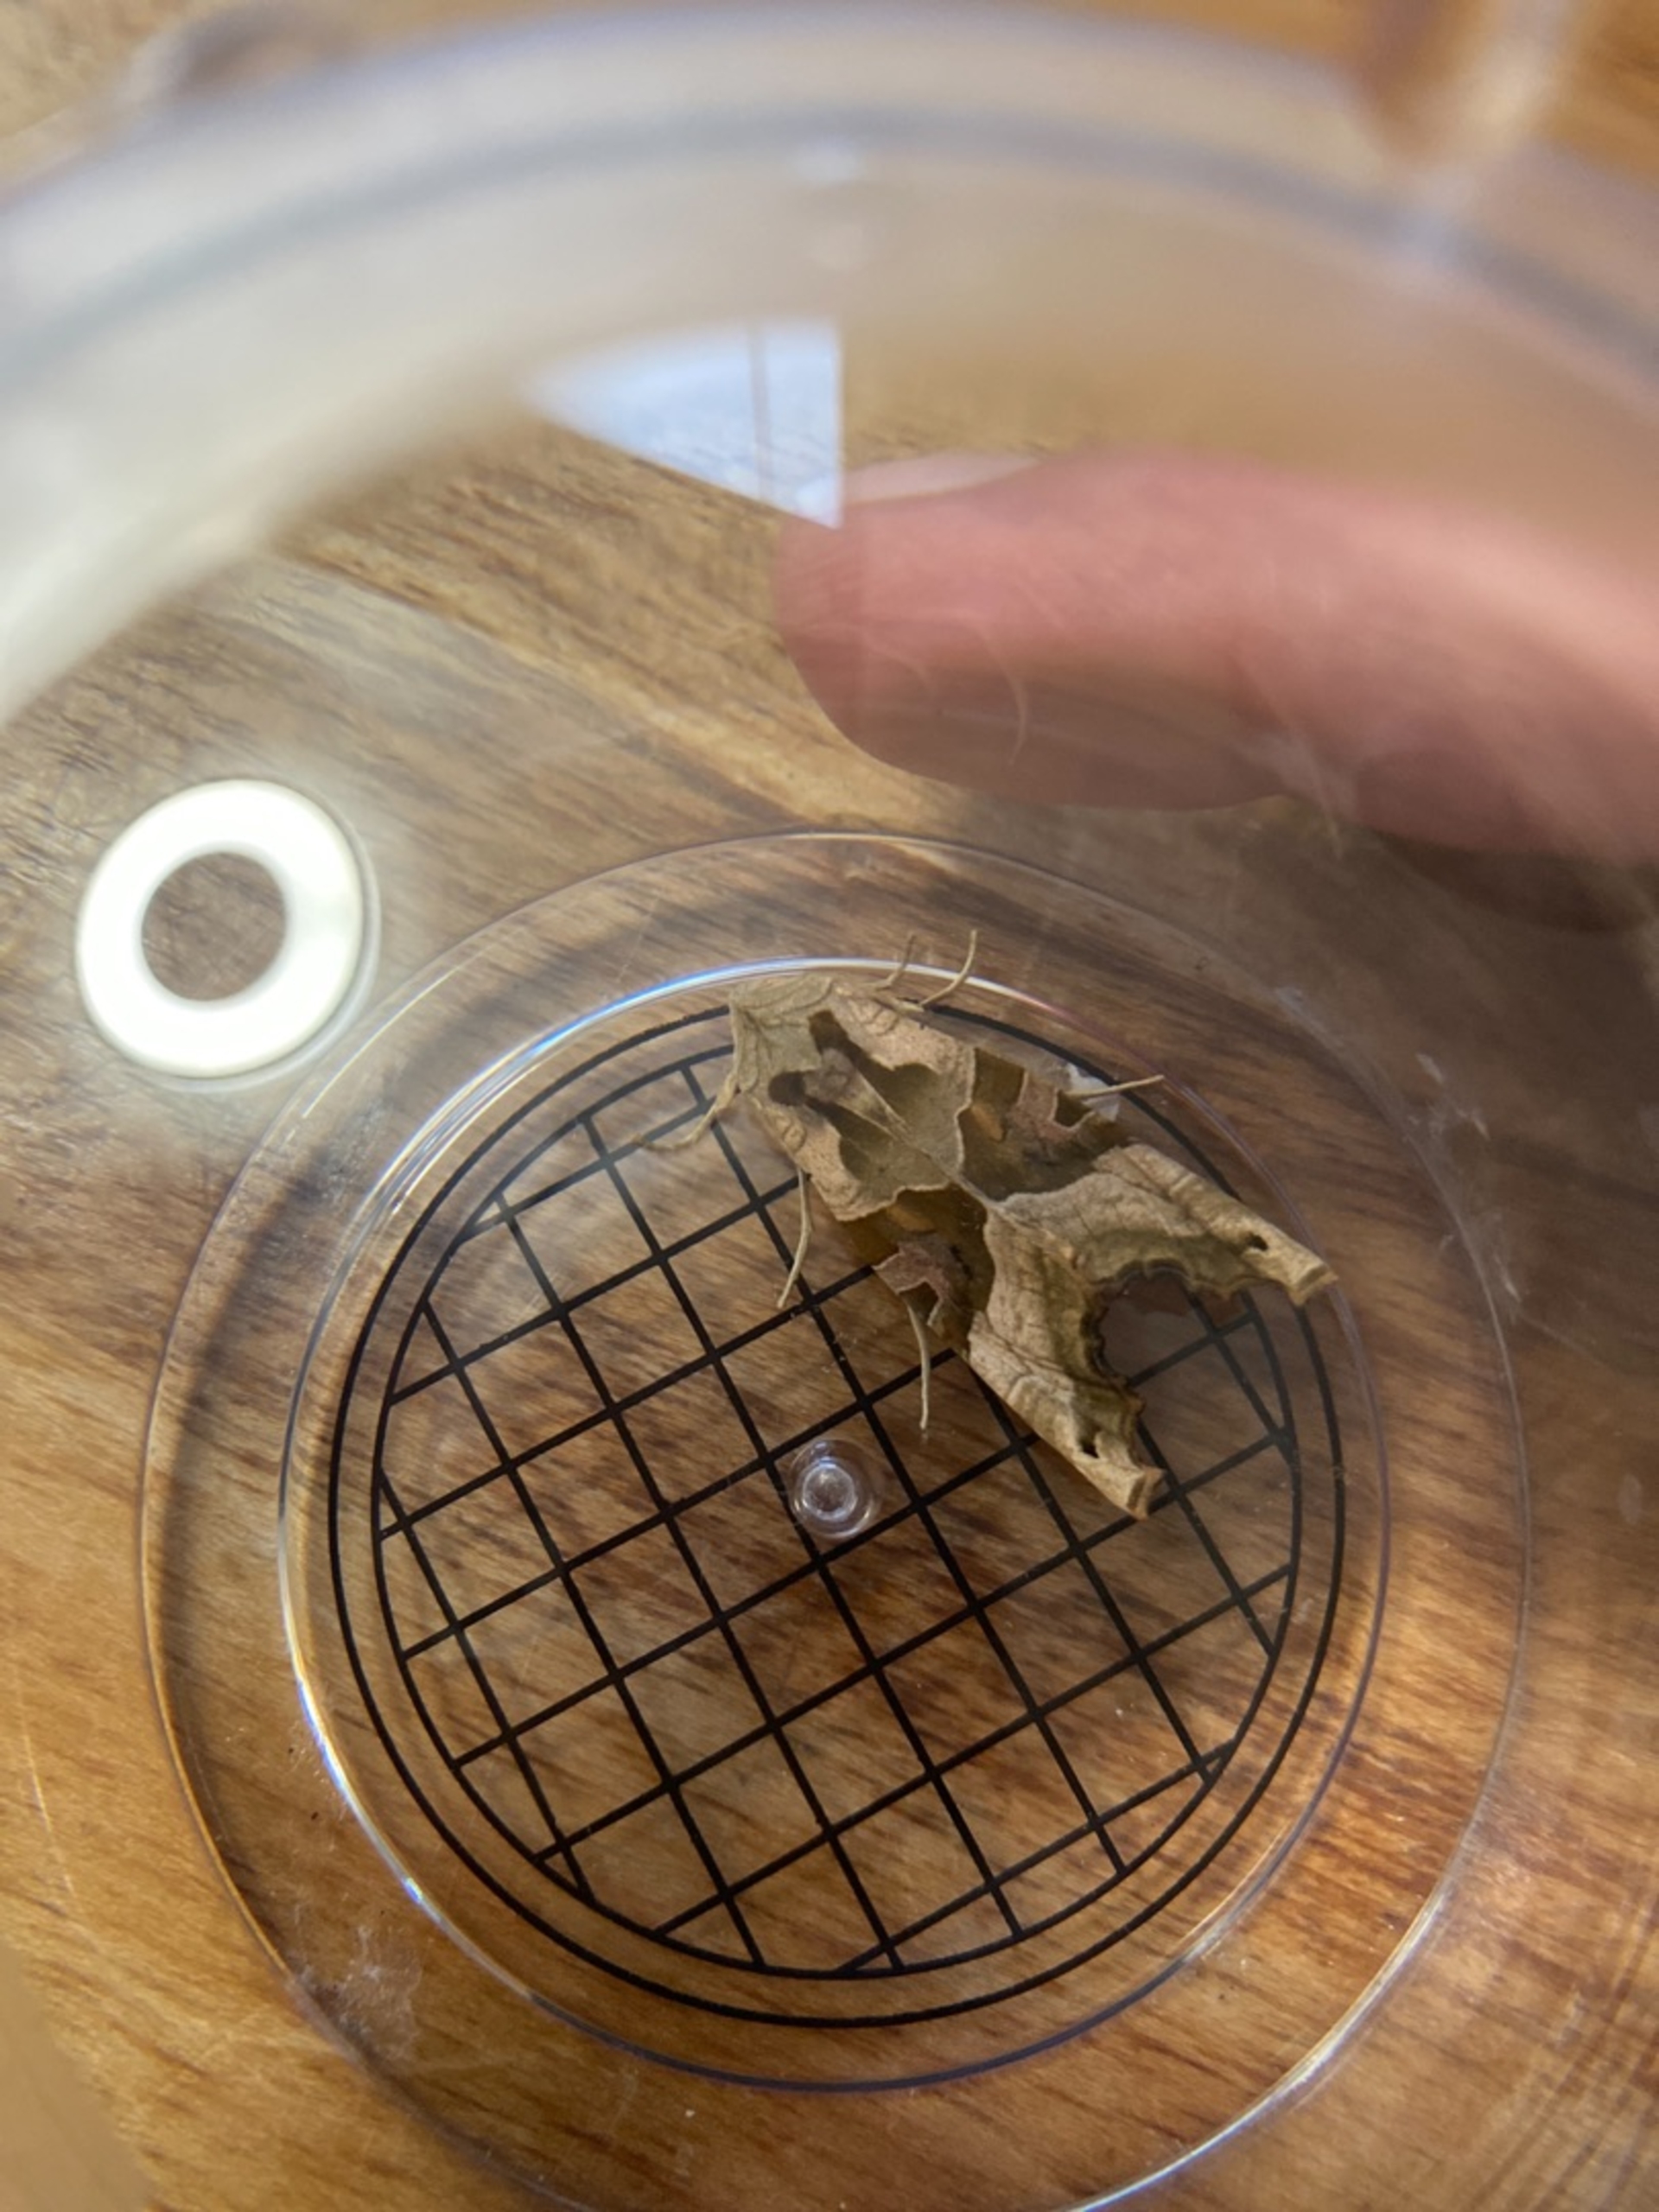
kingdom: Animalia
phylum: Arthropoda
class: Insecta
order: Lepidoptera
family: Noctuidae
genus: Phlogophora
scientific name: Phlogophora meticulosa
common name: Agatugle
